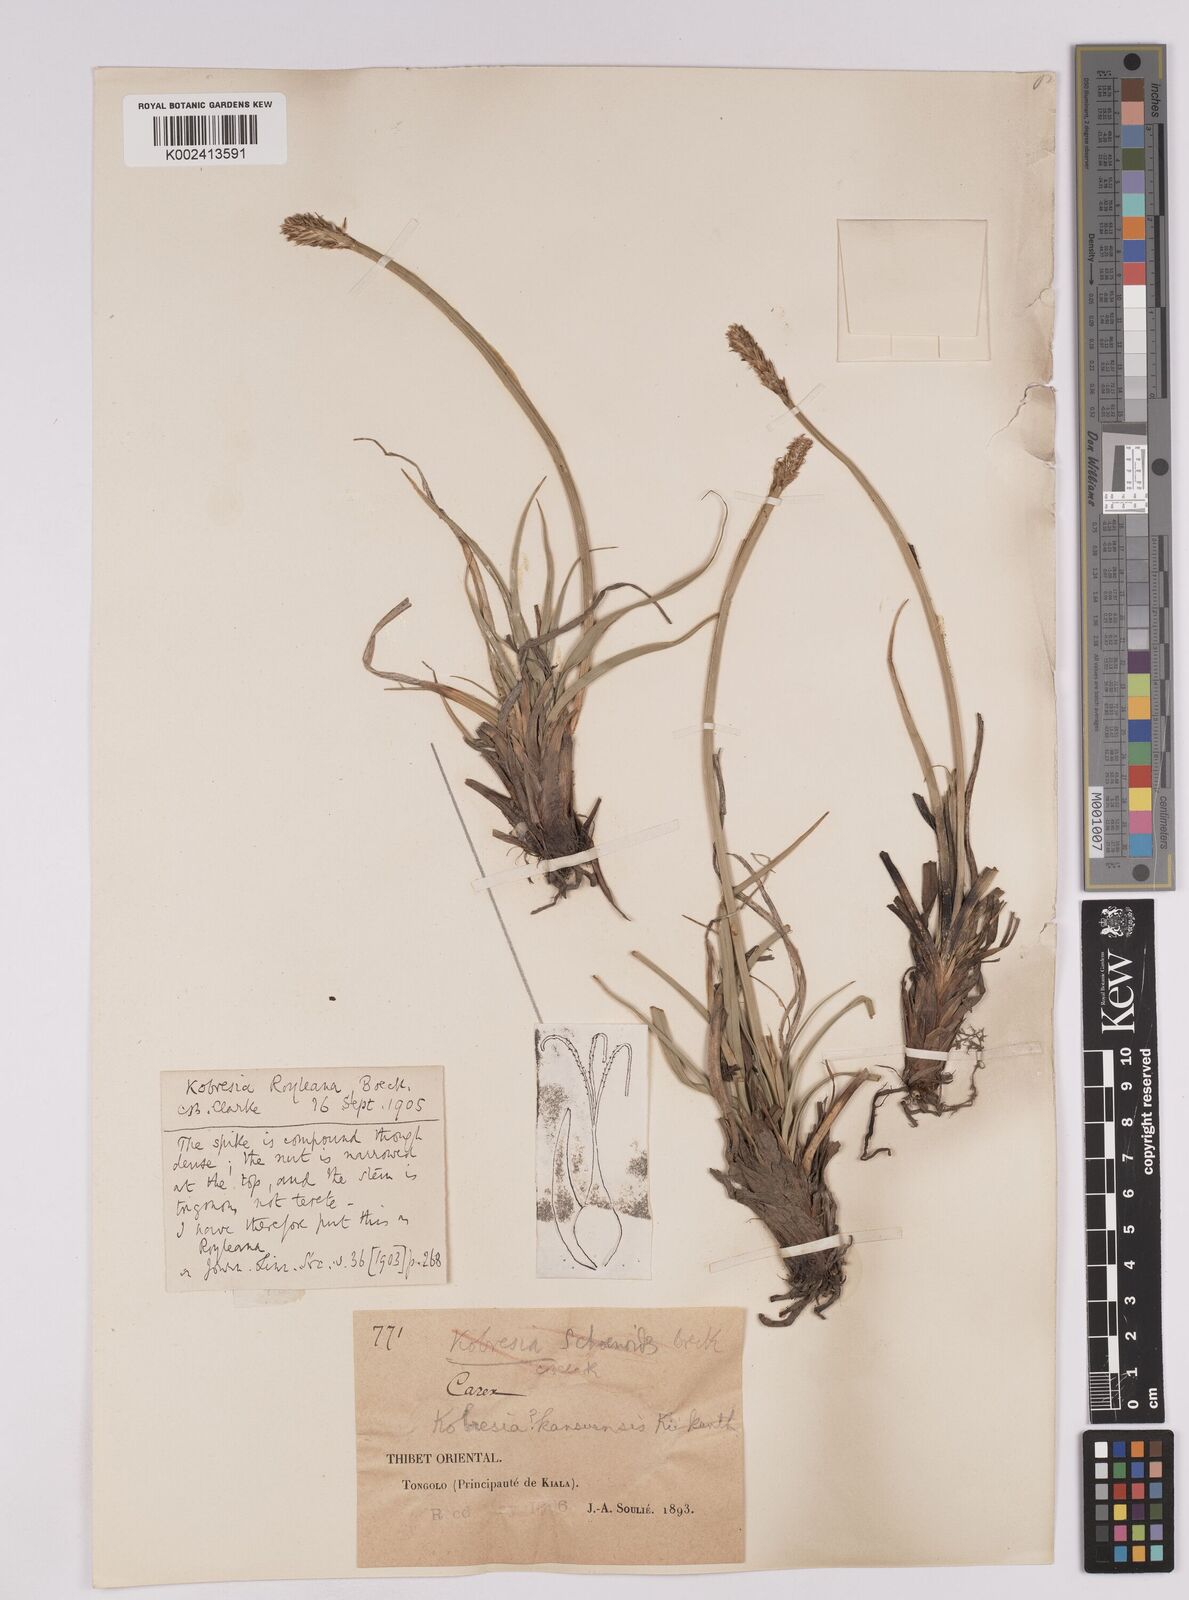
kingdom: Plantae
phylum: Tracheophyta
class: Liliopsida
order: Poales
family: Cyperaceae
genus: Carex
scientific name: Carex pseuduncinoides
